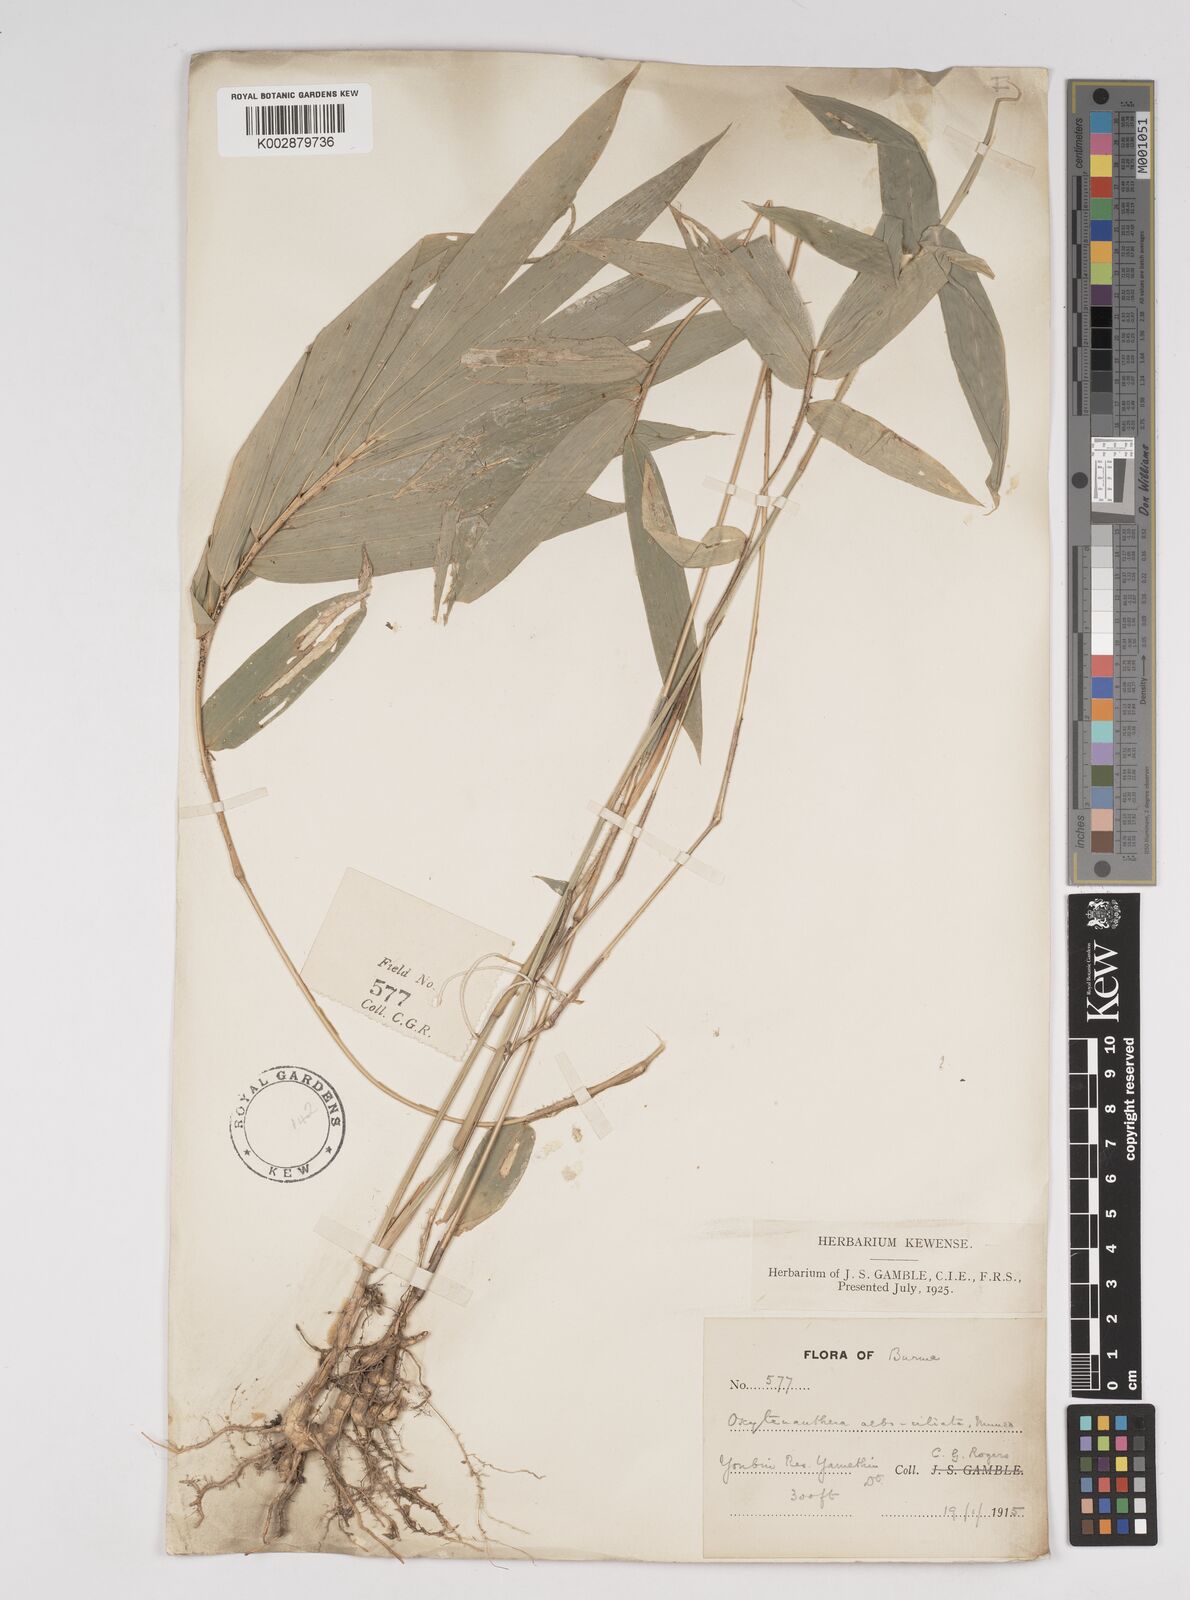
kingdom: Plantae
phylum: Tracheophyta
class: Liliopsida
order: Poales
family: Poaceae
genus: Gigantochloa
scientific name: Gigantochloa albociliata
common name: White-fringe gigantochloa
